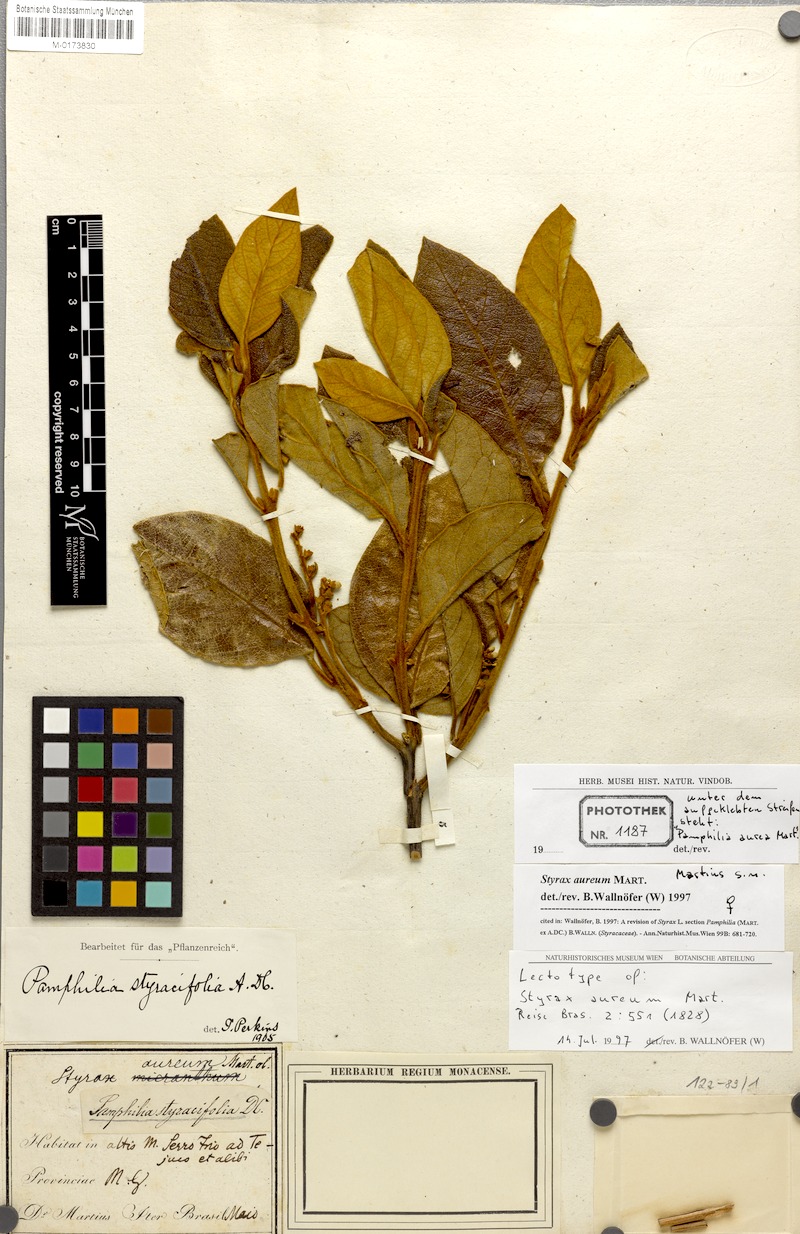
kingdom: Plantae
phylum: Tracheophyta
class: Magnoliopsida
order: Ericales
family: Styracaceae
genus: Styrax
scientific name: Styrax aureus
